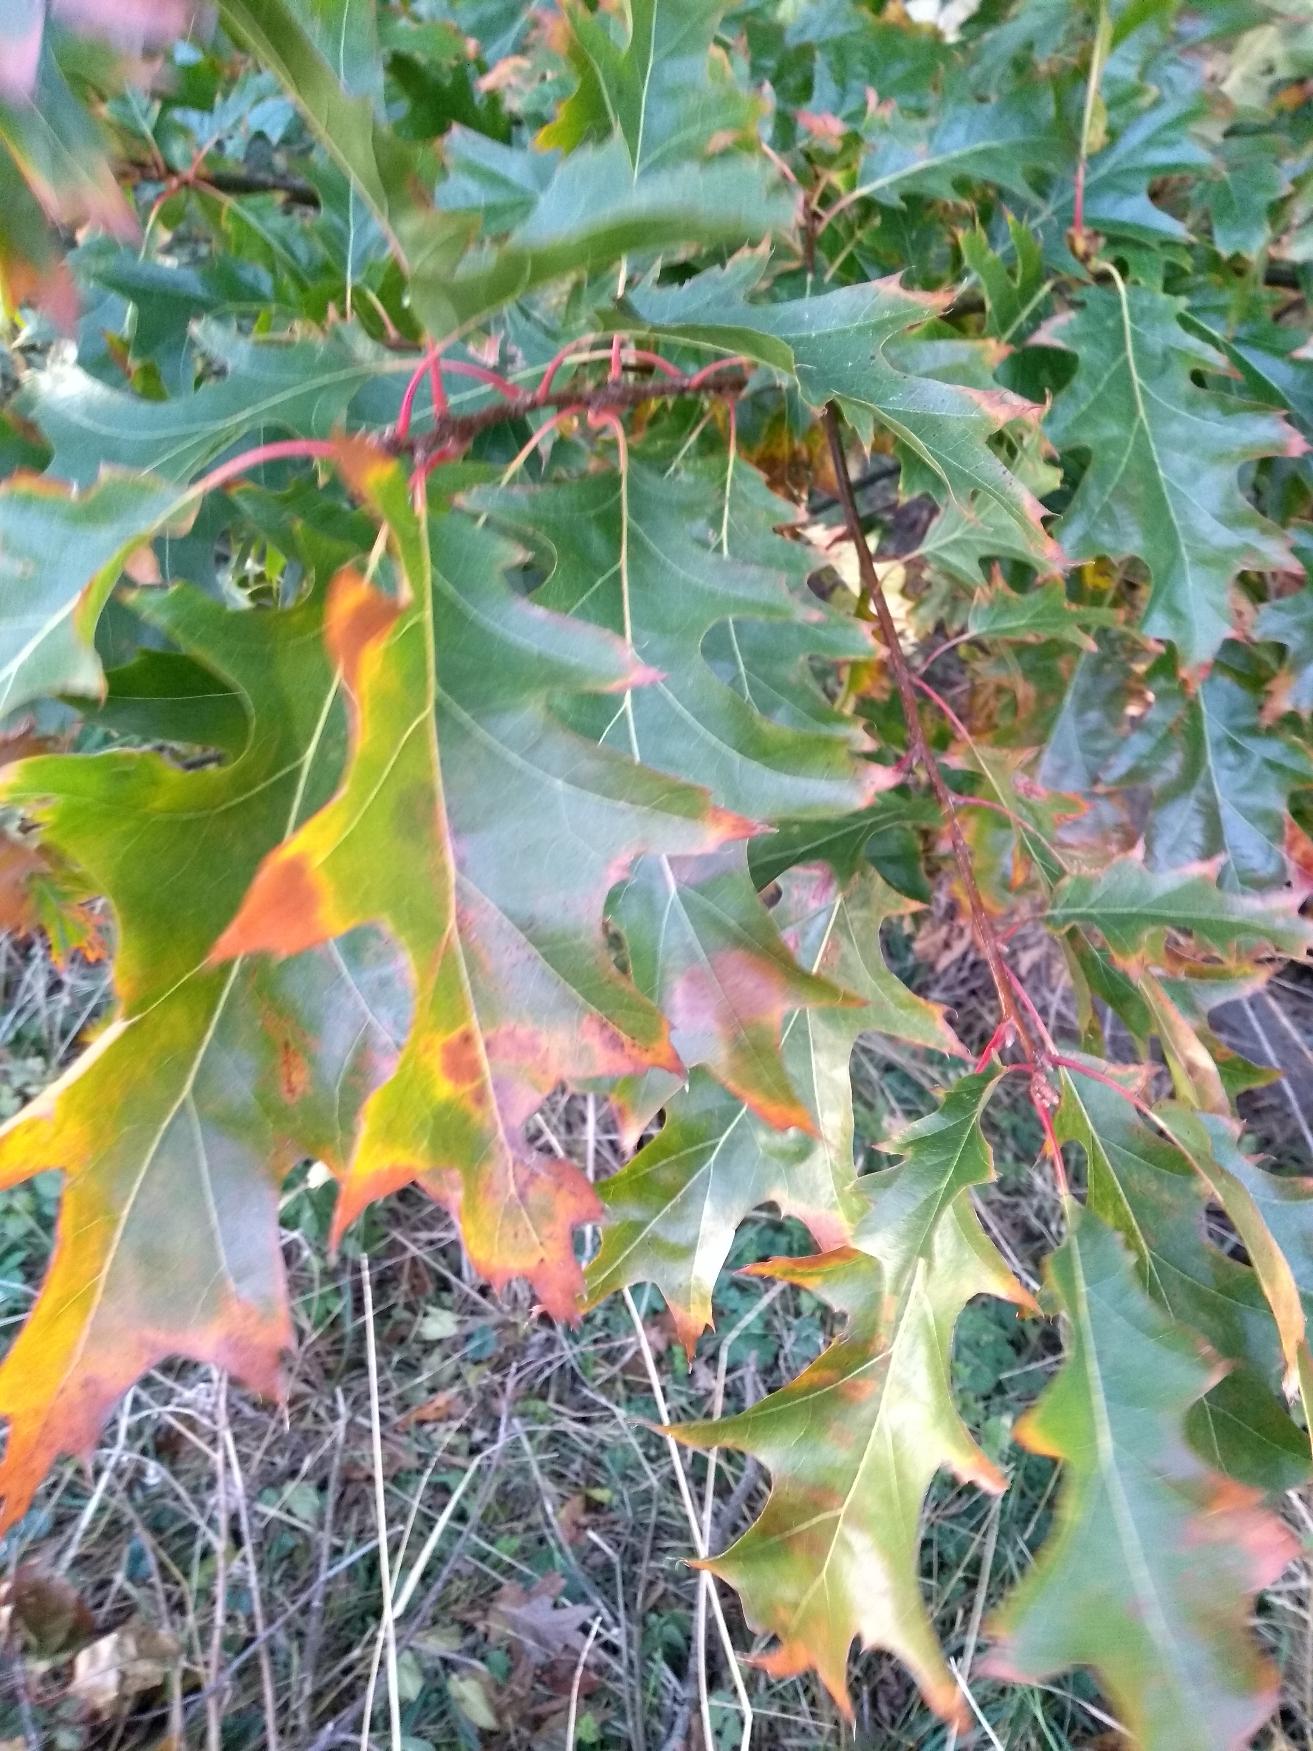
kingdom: Plantae
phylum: Tracheophyta
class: Magnoliopsida
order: Fagales
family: Fagaceae
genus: Quercus
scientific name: Quercus rubra
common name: Rød-eg
